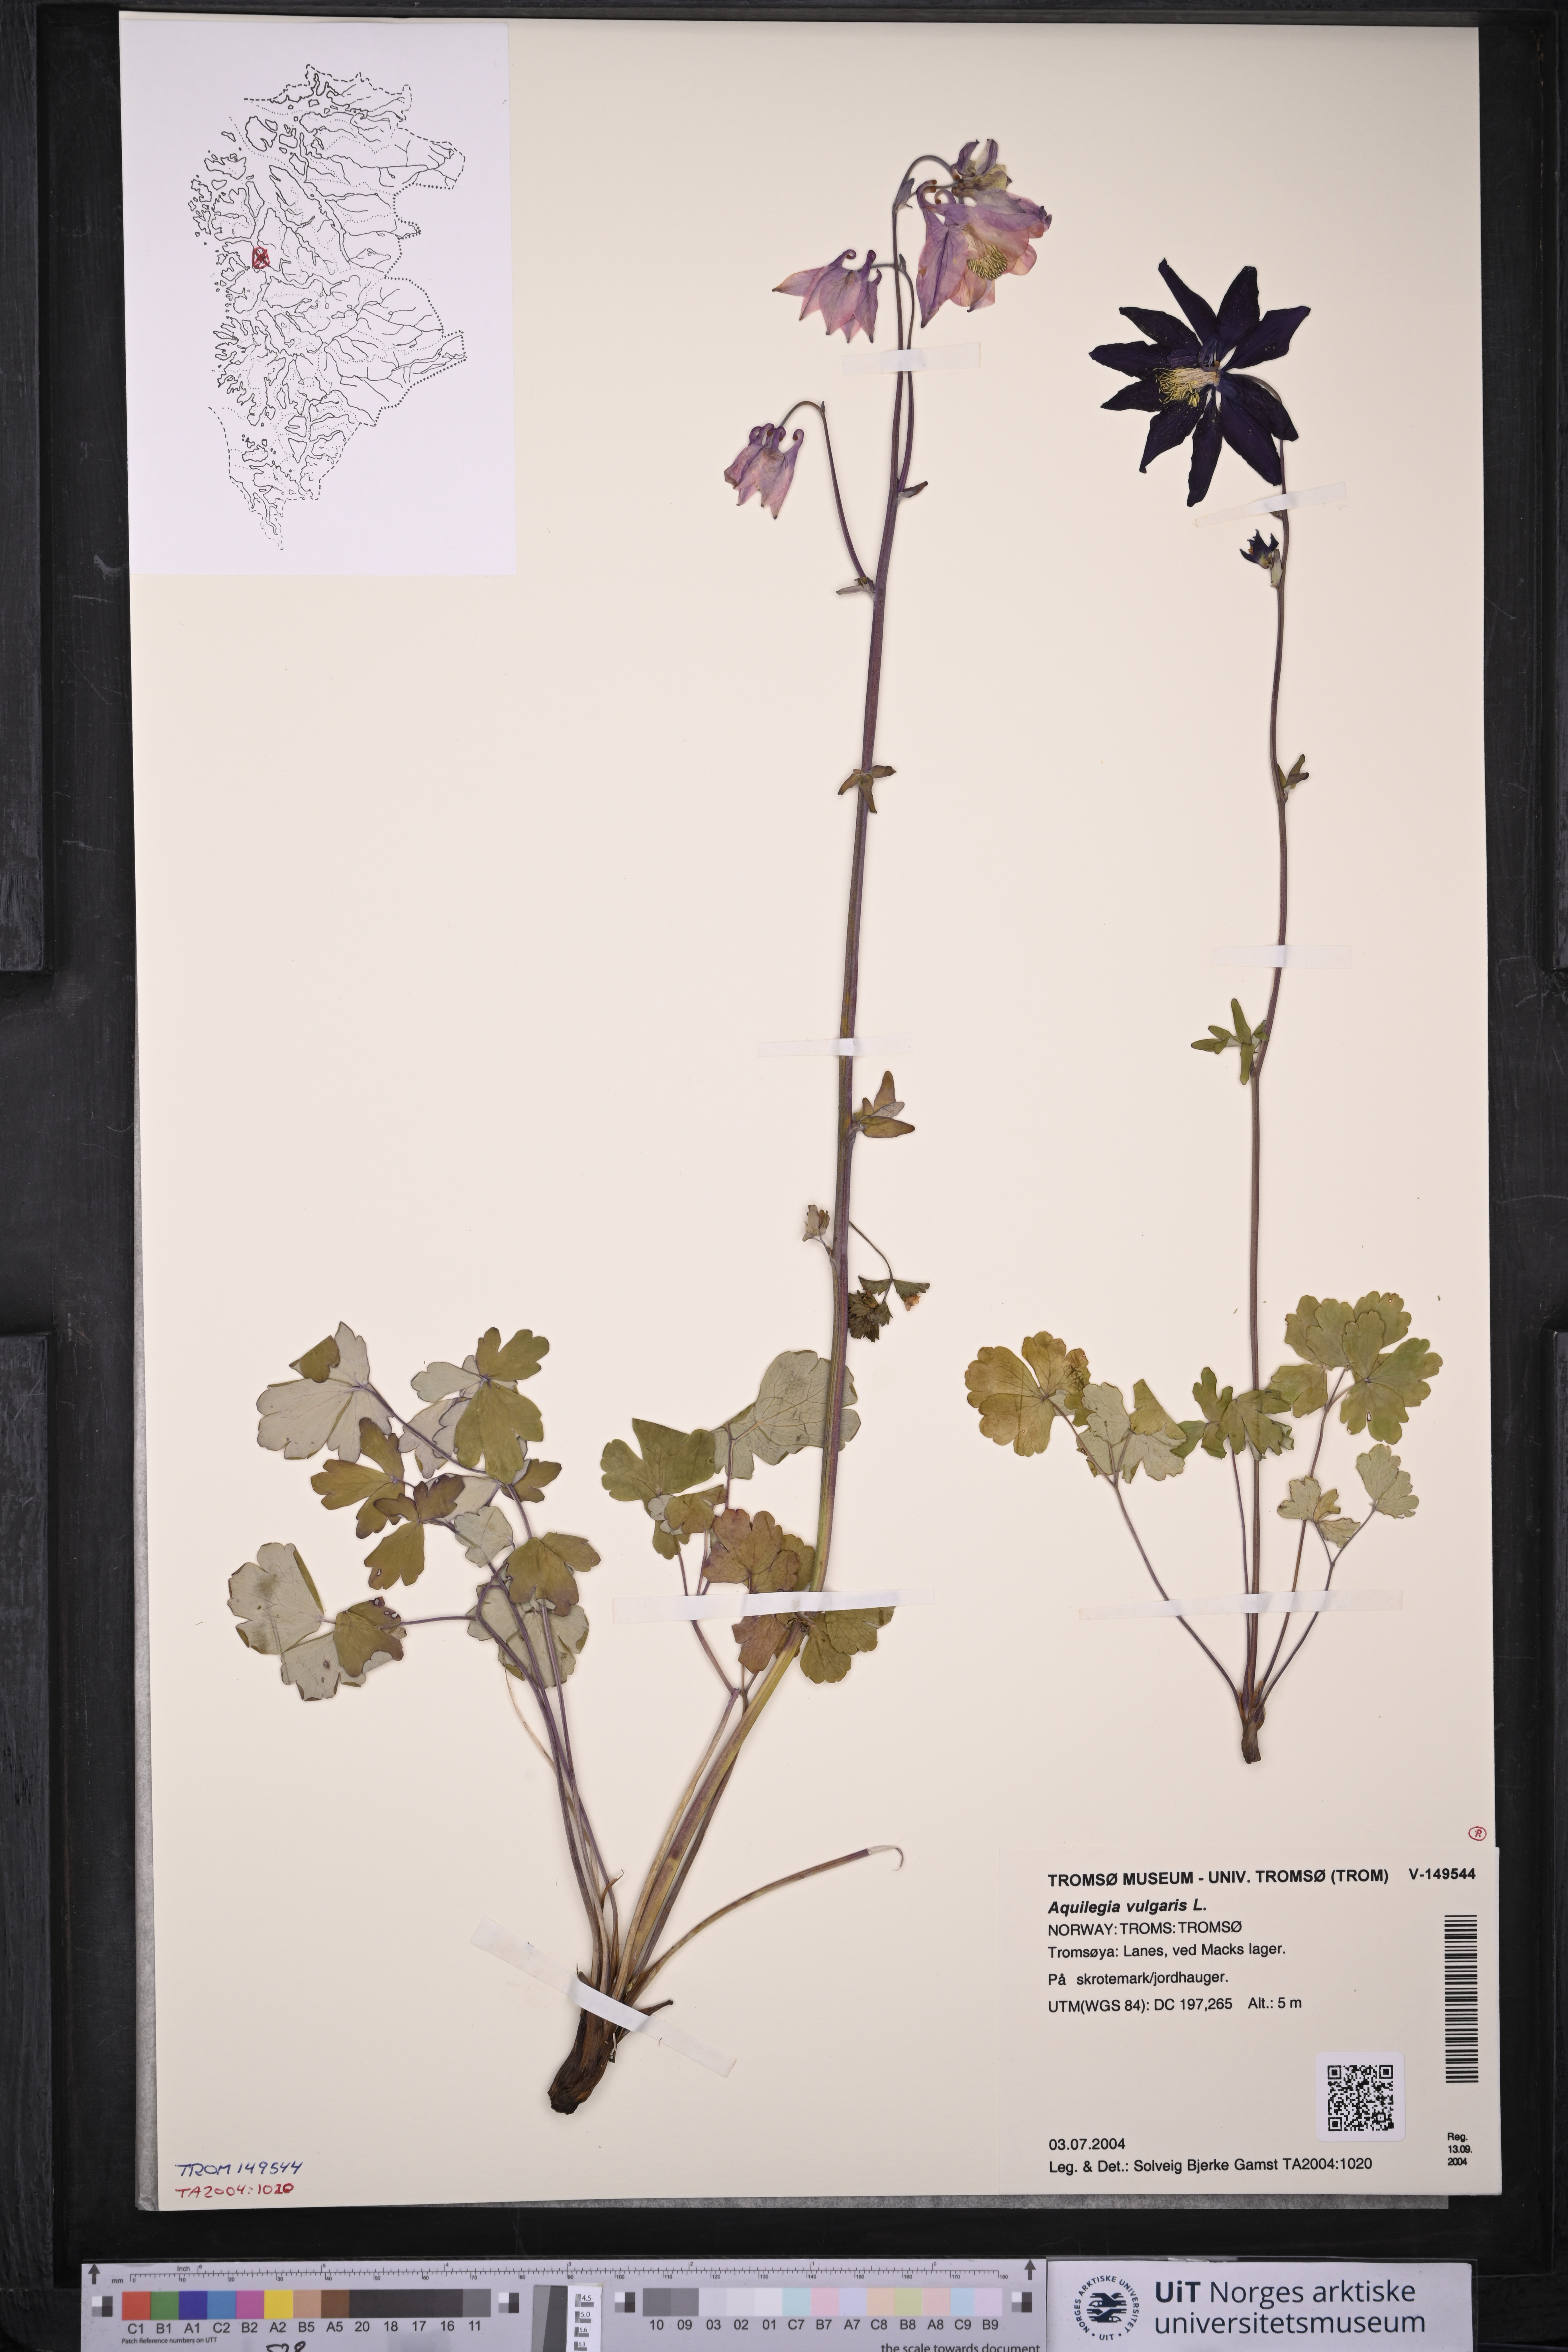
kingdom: Plantae
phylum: Tracheophyta
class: Magnoliopsida
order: Ranunculales
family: Ranunculaceae
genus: Aquilegia
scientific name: Aquilegia vulgaris
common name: Columbine
